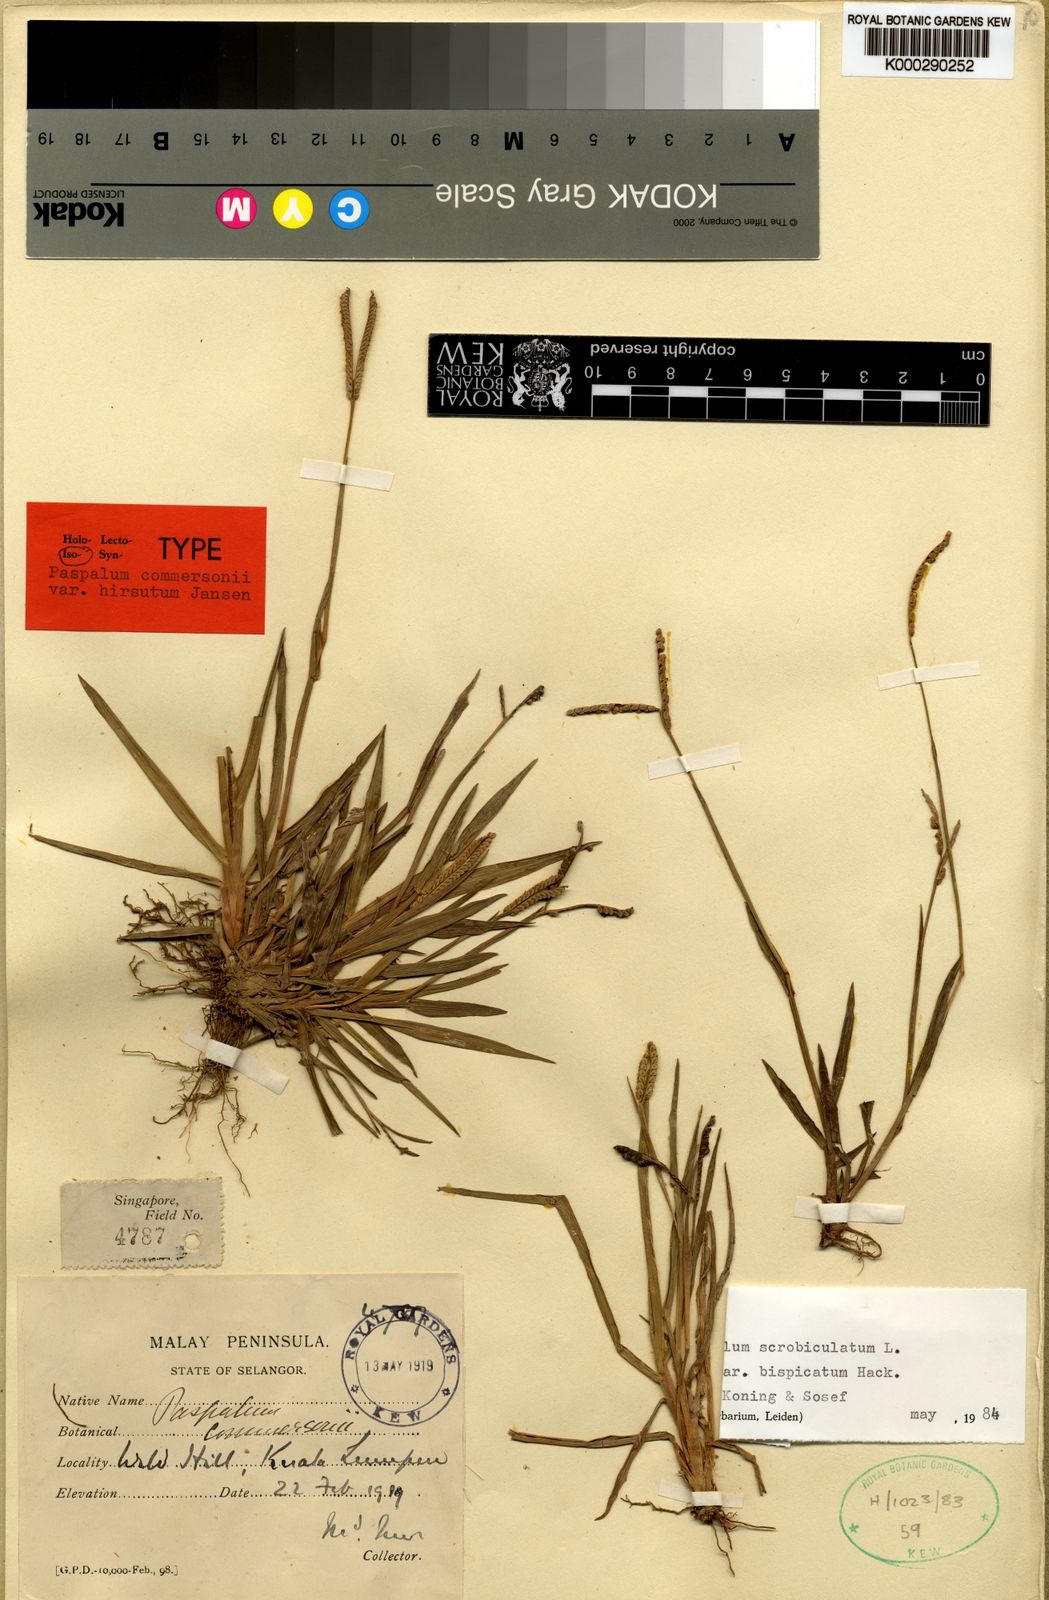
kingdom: Plantae
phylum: Tracheophyta
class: Liliopsida
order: Poales
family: Poaceae
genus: Paspalum
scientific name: Paspalum scrobiculatum
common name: Kodo millet
